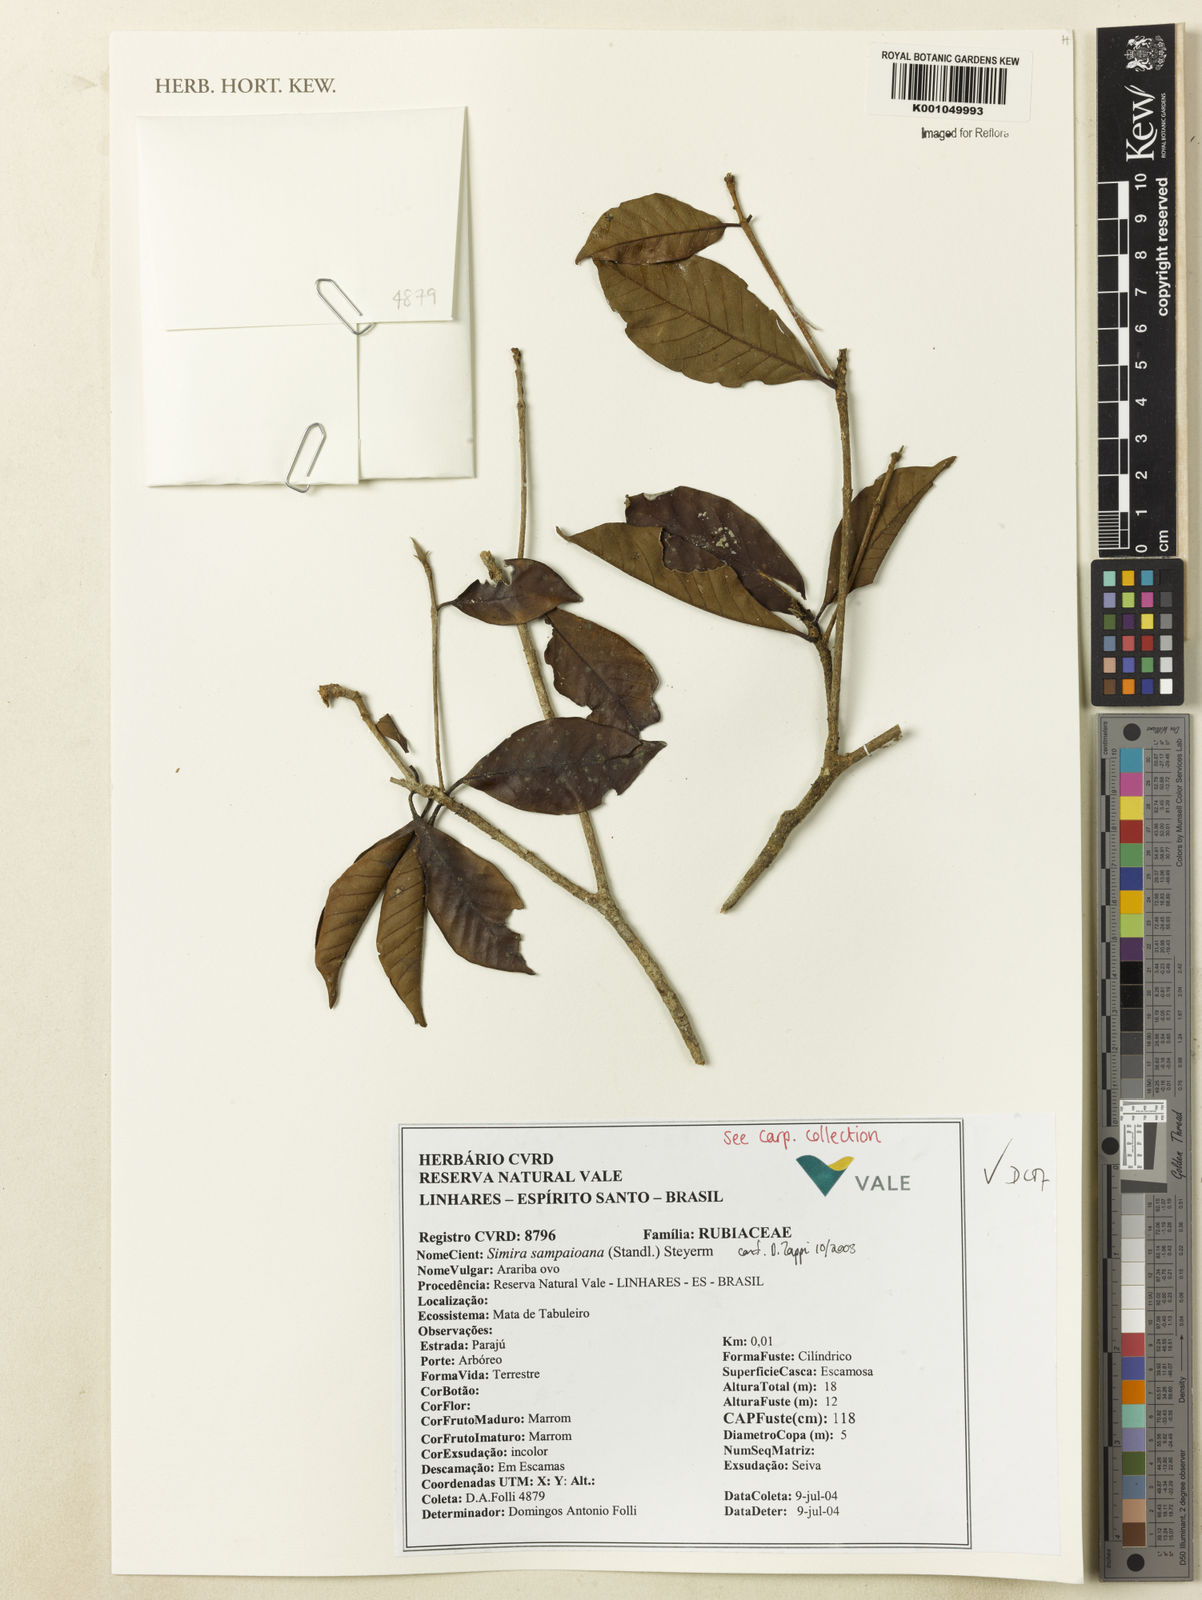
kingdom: Plantae
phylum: Tracheophyta
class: Magnoliopsida
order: Gentianales
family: Rubiaceae
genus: Simira
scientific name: Simira sampaioana
